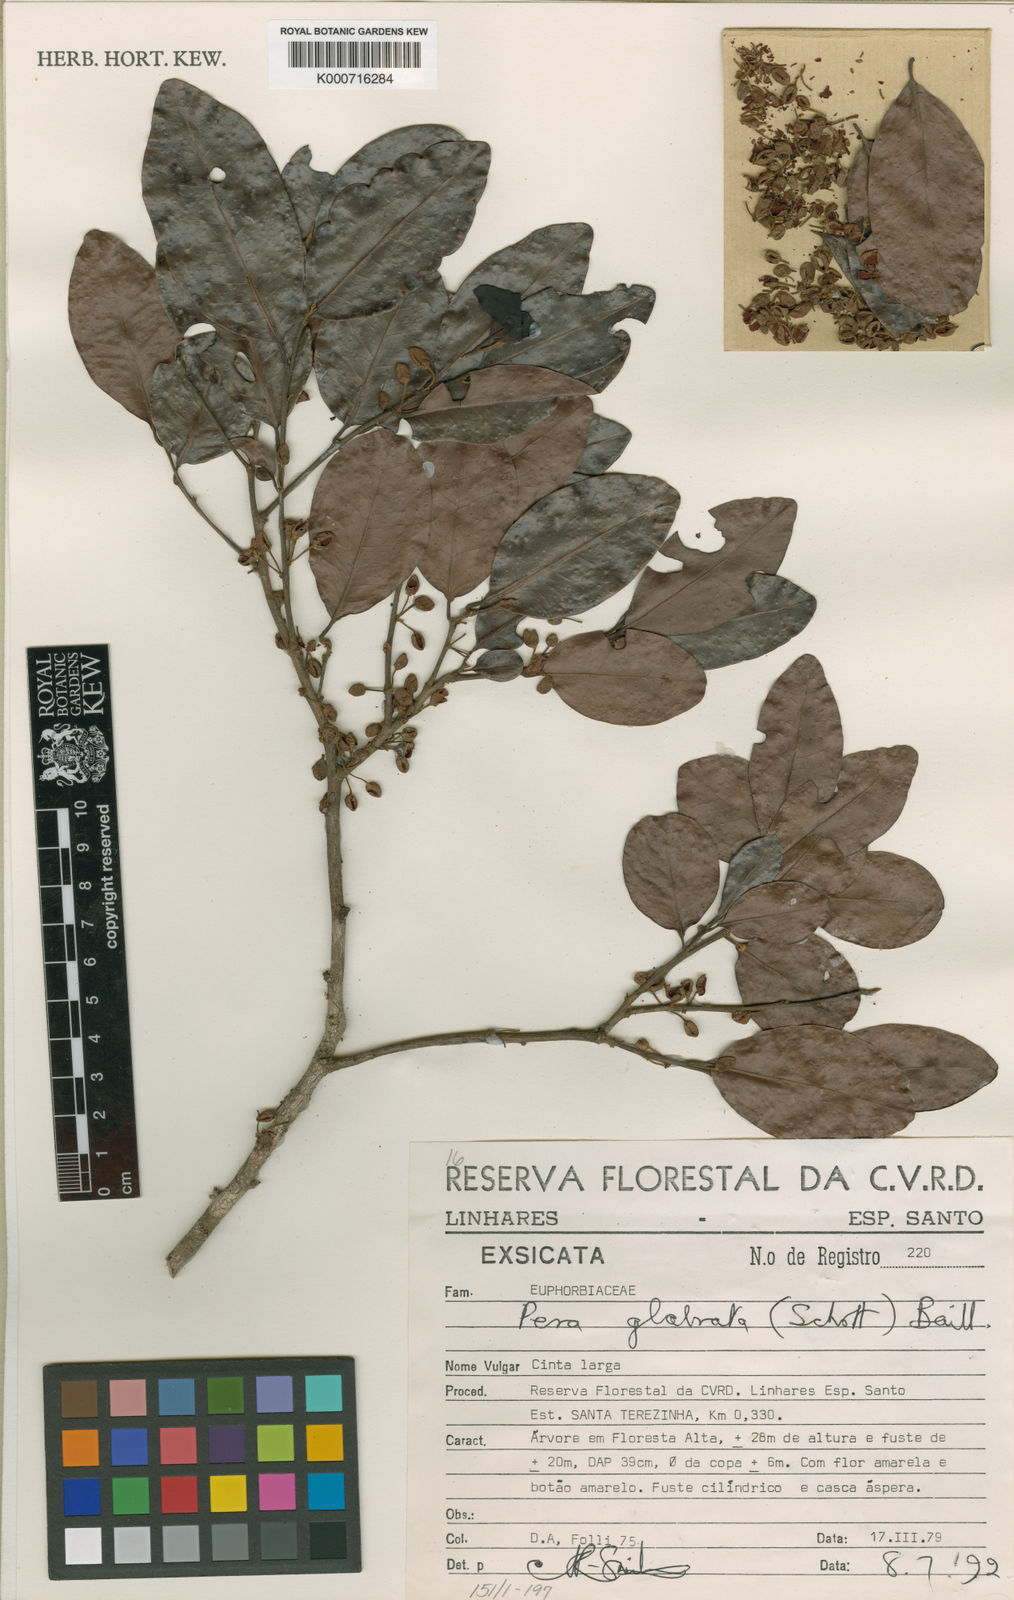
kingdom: Plantae
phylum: Tracheophyta
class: Magnoliopsida
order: Malpighiales
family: Peraceae
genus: Pera
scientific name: Pera glabrata
